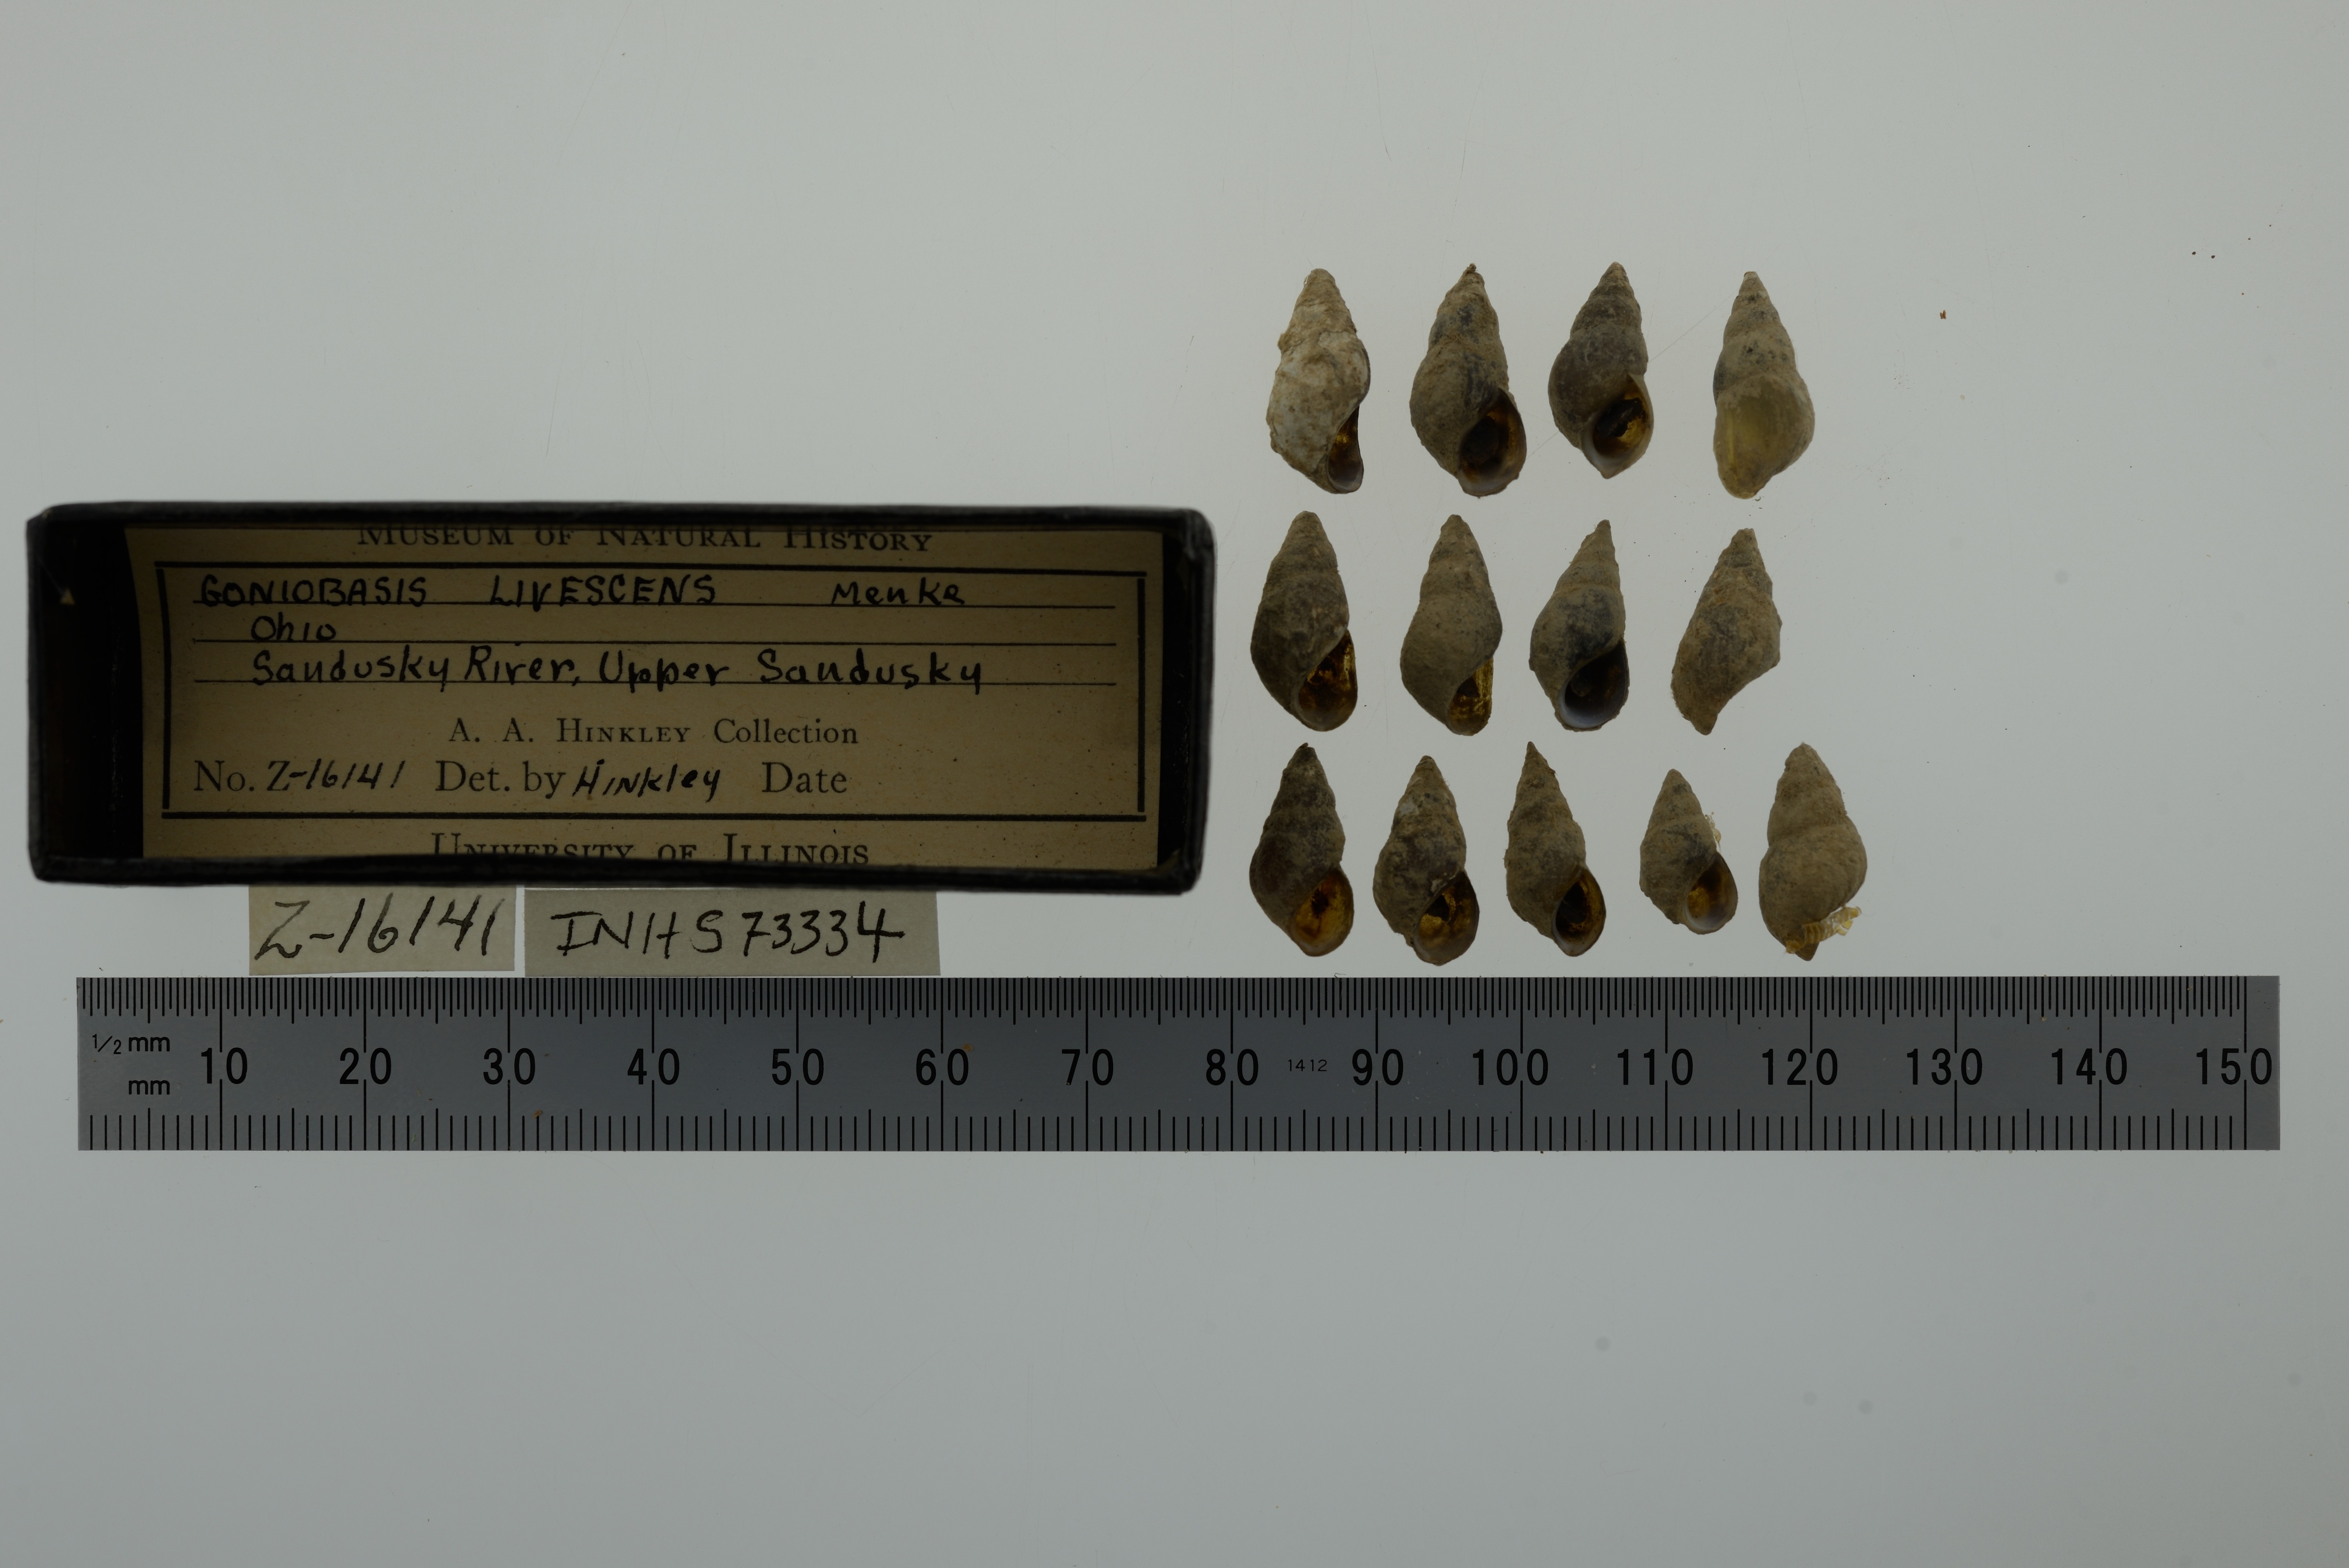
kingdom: Animalia
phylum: Mollusca
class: Gastropoda
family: Pleuroceridae
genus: Elimia
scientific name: Elimia livescens
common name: Liver elimia
